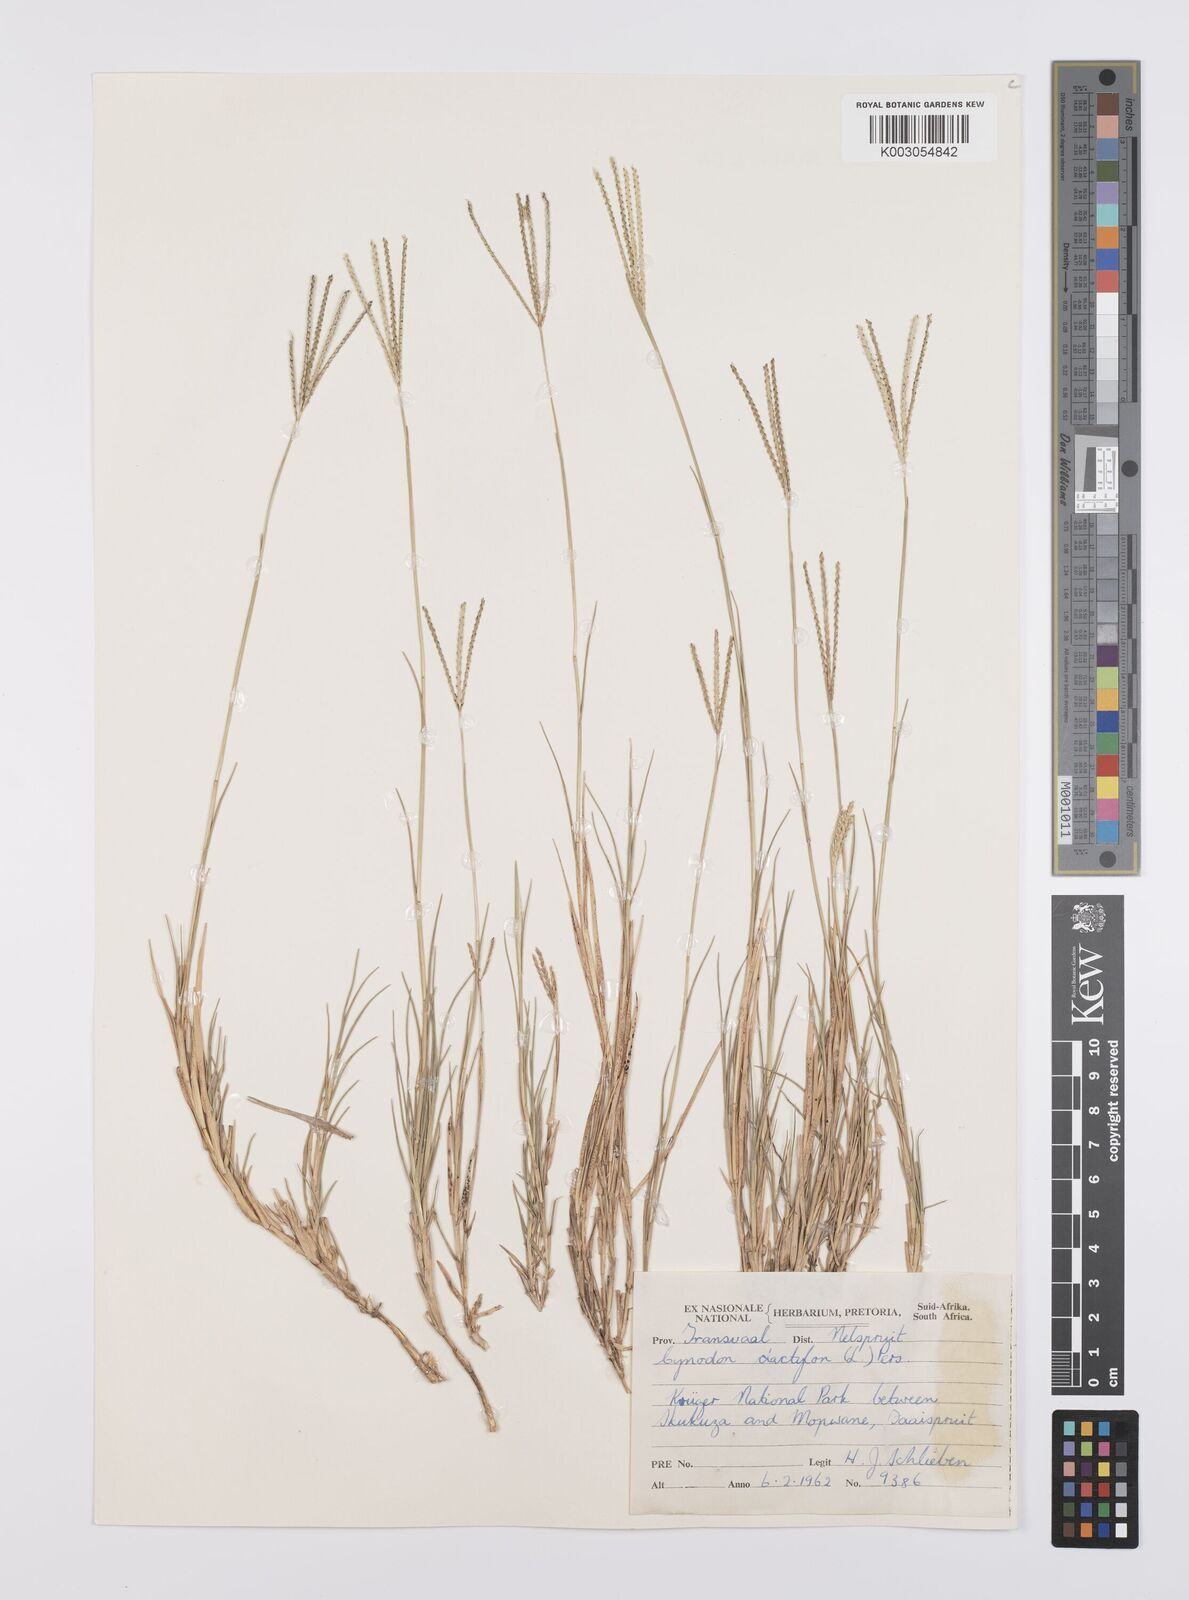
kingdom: Plantae
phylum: Tracheophyta
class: Liliopsida
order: Poales
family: Poaceae
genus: Cynodon
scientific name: Cynodon dactylon
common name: Bermuda grass
